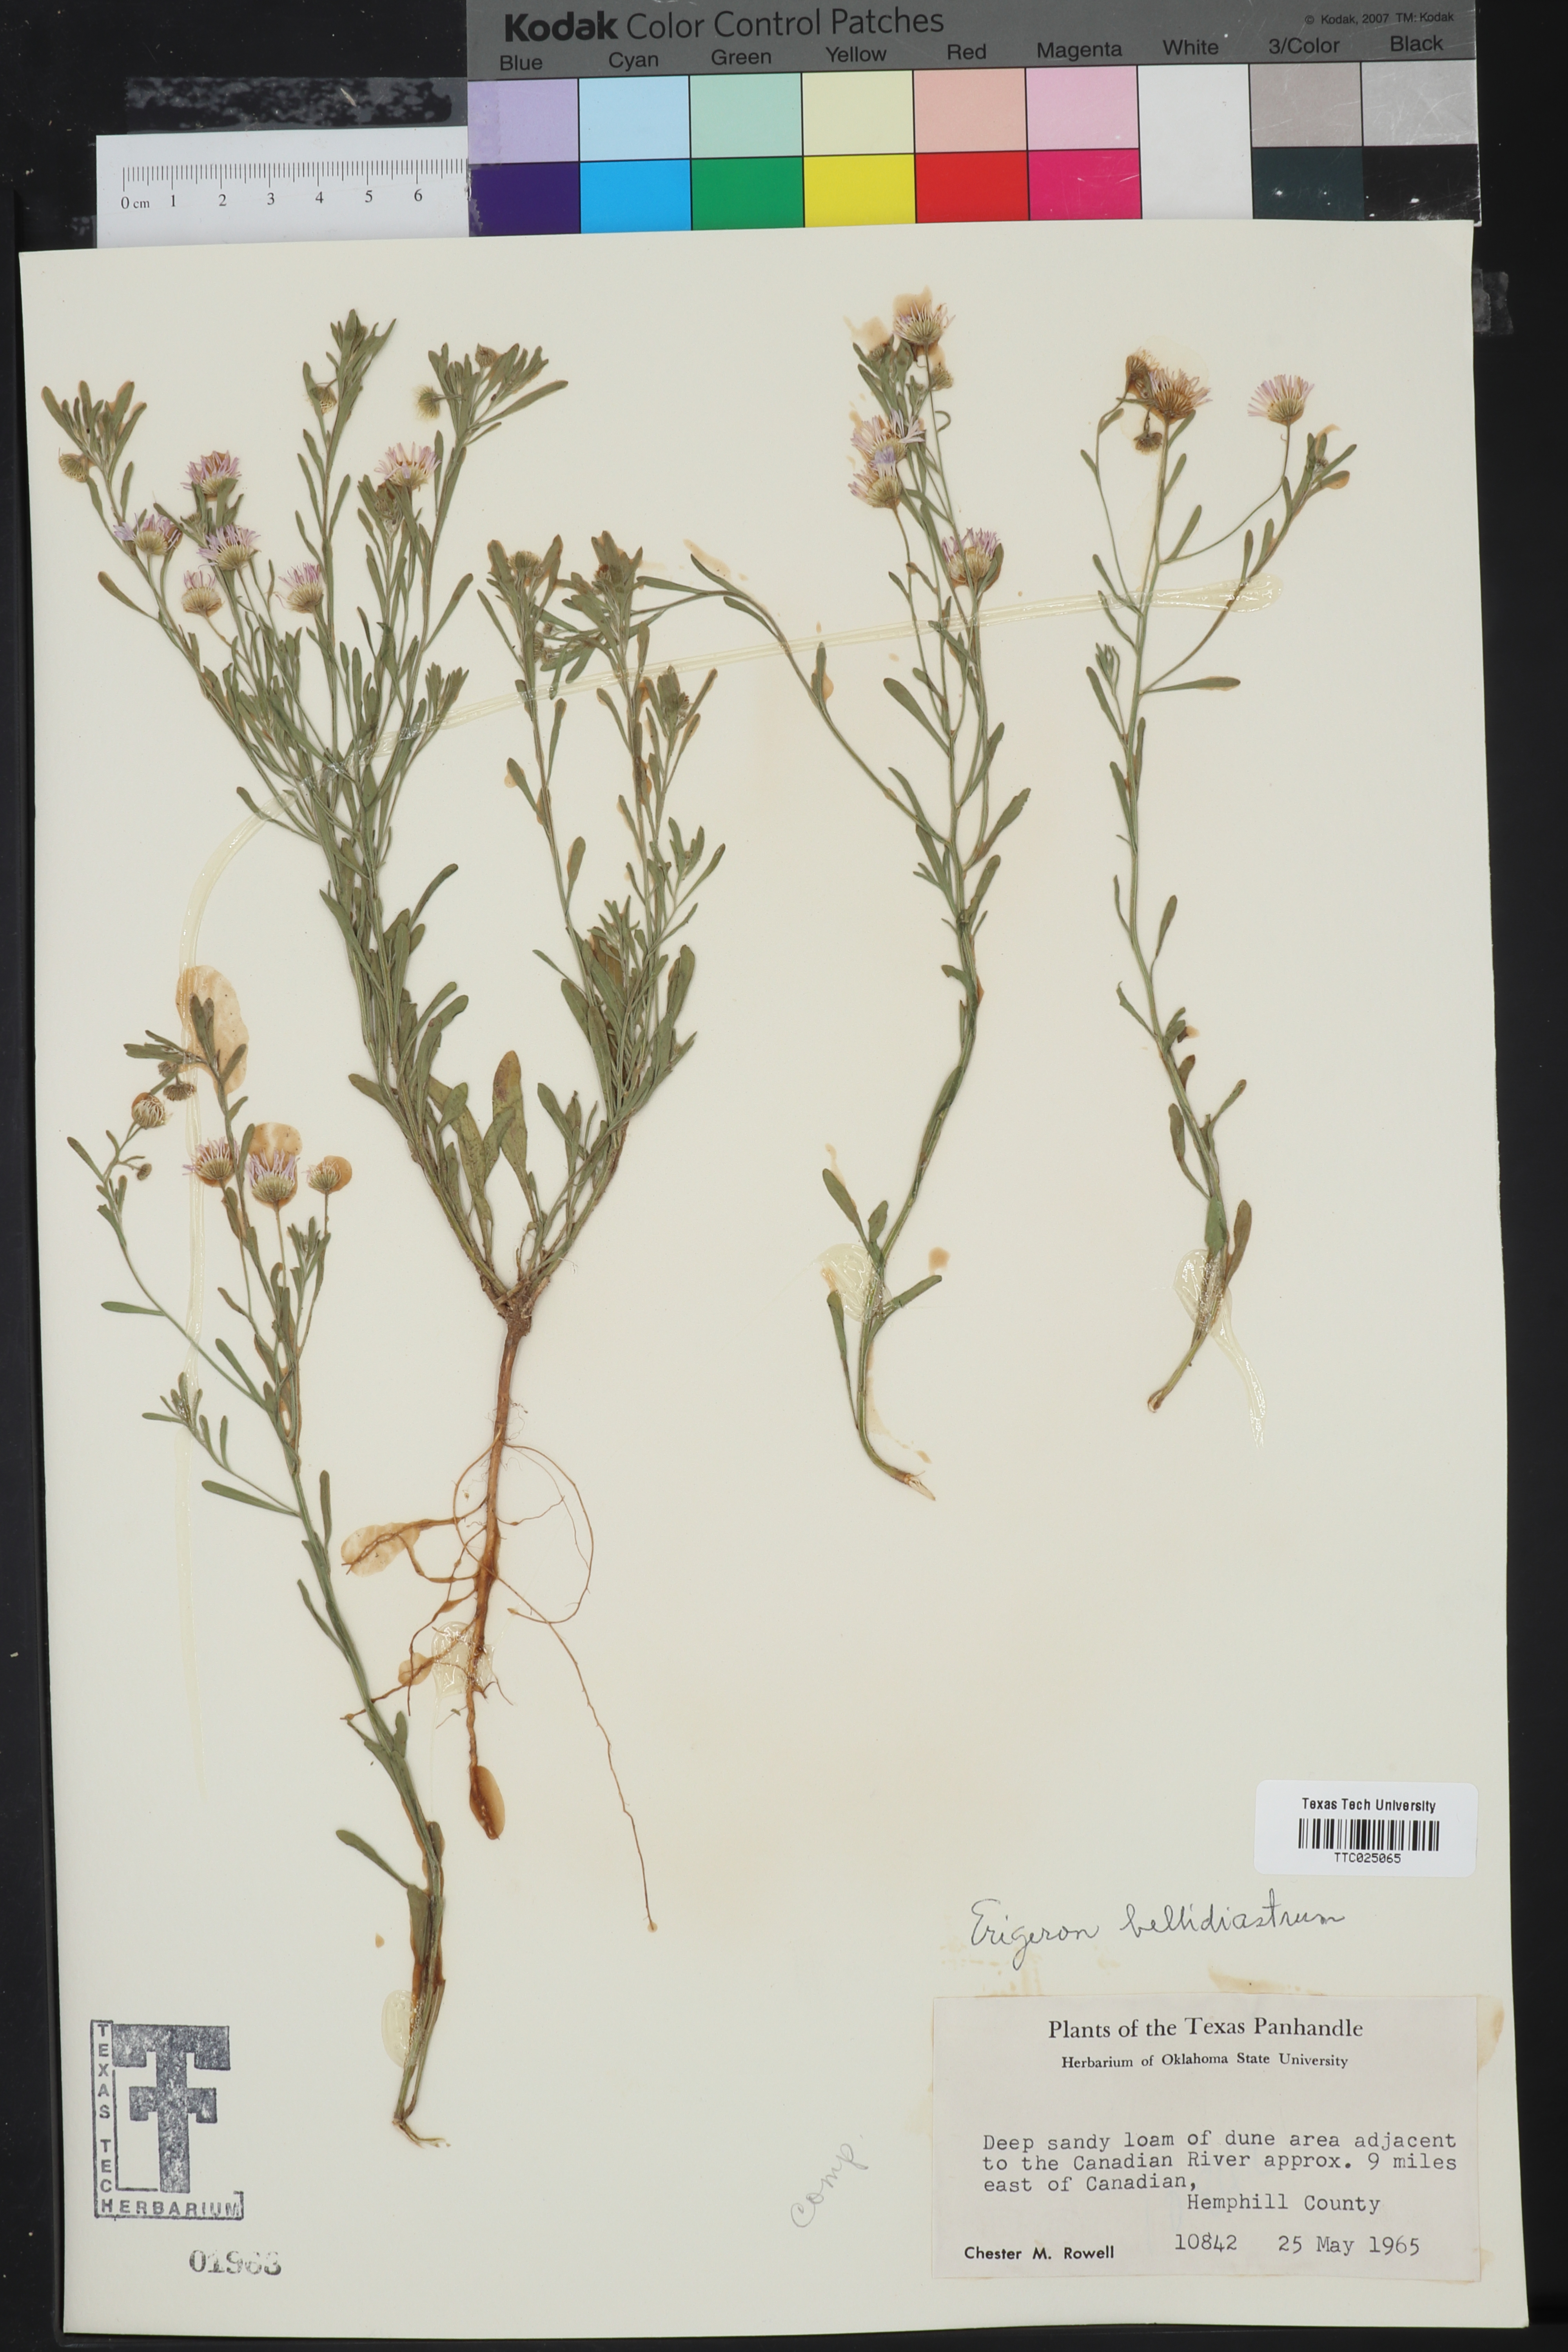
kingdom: Plantae
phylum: Tracheophyta
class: Magnoliopsida
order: Asterales
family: Asteraceae
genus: Erigeron
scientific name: Erigeron bellidiastrum
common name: Sand fleabane
